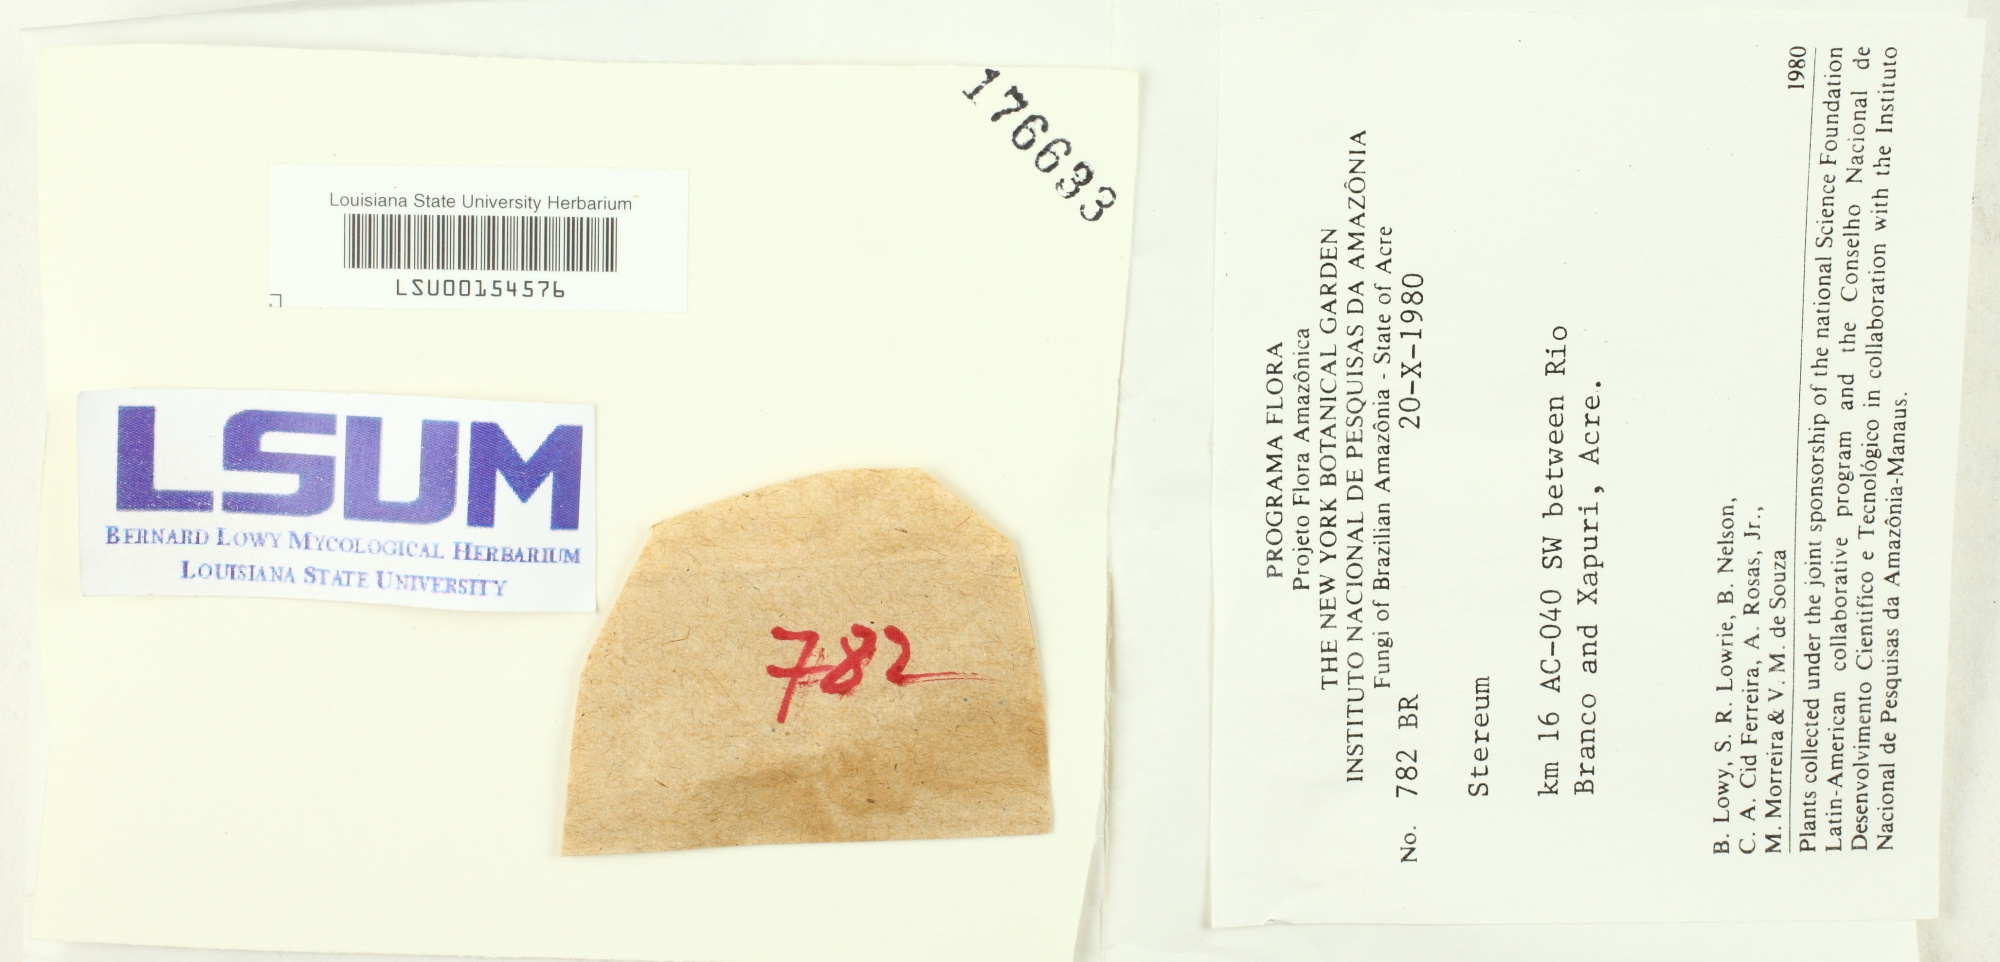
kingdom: Fungi
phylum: Basidiomycota
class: Agaricomycetes
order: Russulales
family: Stereaceae
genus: Stereum
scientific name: Stereum
